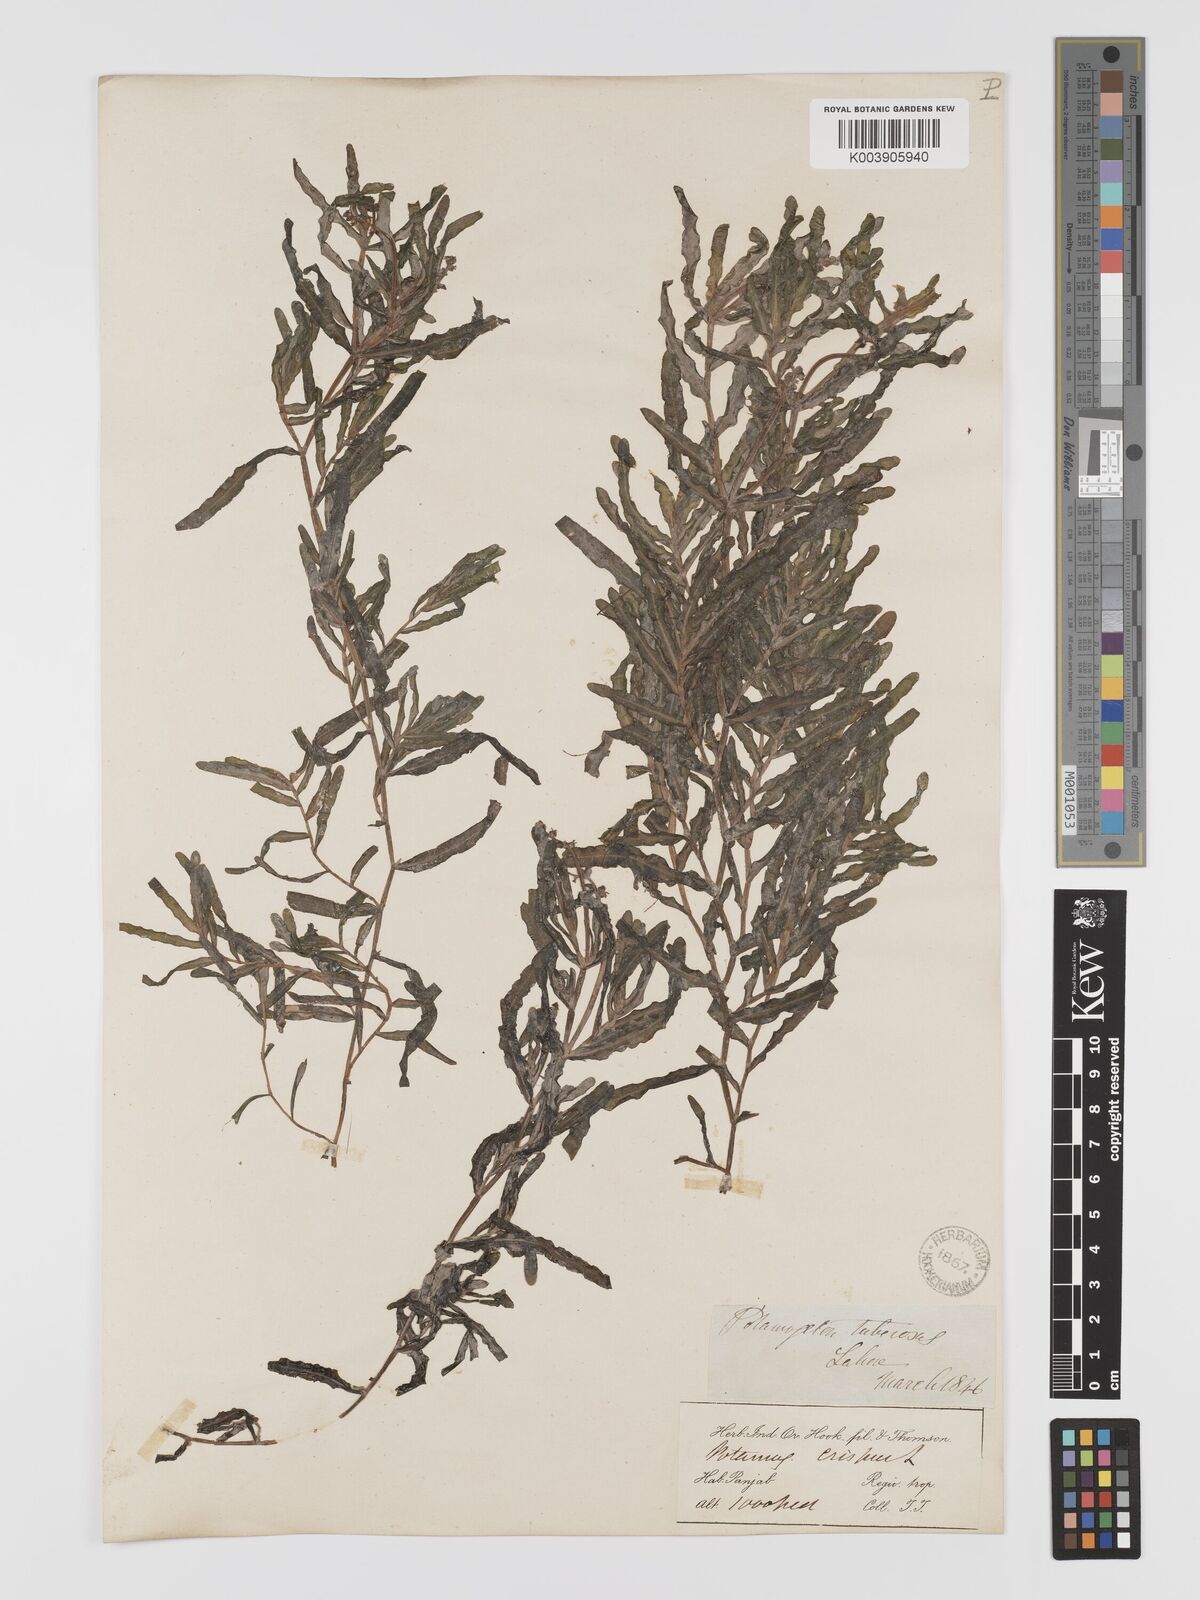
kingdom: Plantae
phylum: Tracheophyta
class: Liliopsida
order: Alismatales
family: Potamogetonaceae
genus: Potamogeton
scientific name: Potamogeton crispus
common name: Curled pondweed
